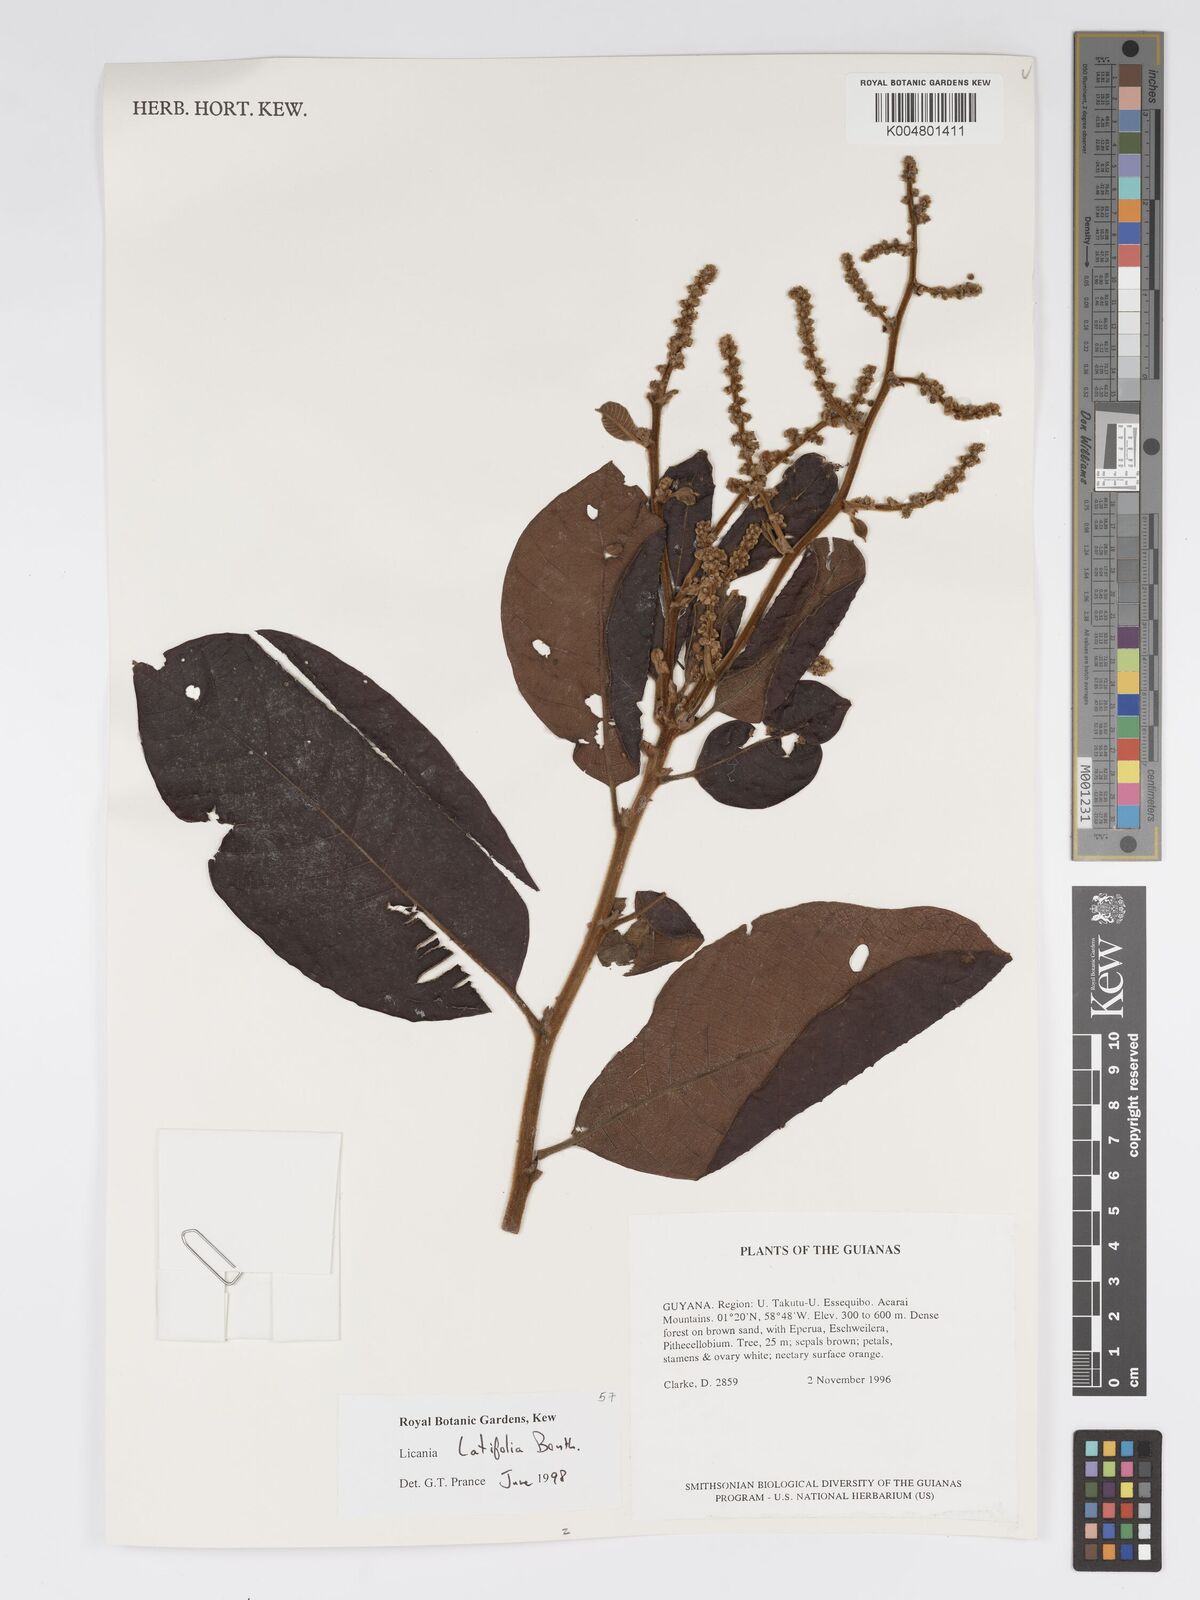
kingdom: Plantae
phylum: Tracheophyta
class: Magnoliopsida
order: Malpighiales
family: Chrysobalanaceae
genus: Hymenopus
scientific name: Hymenopus latifolius
